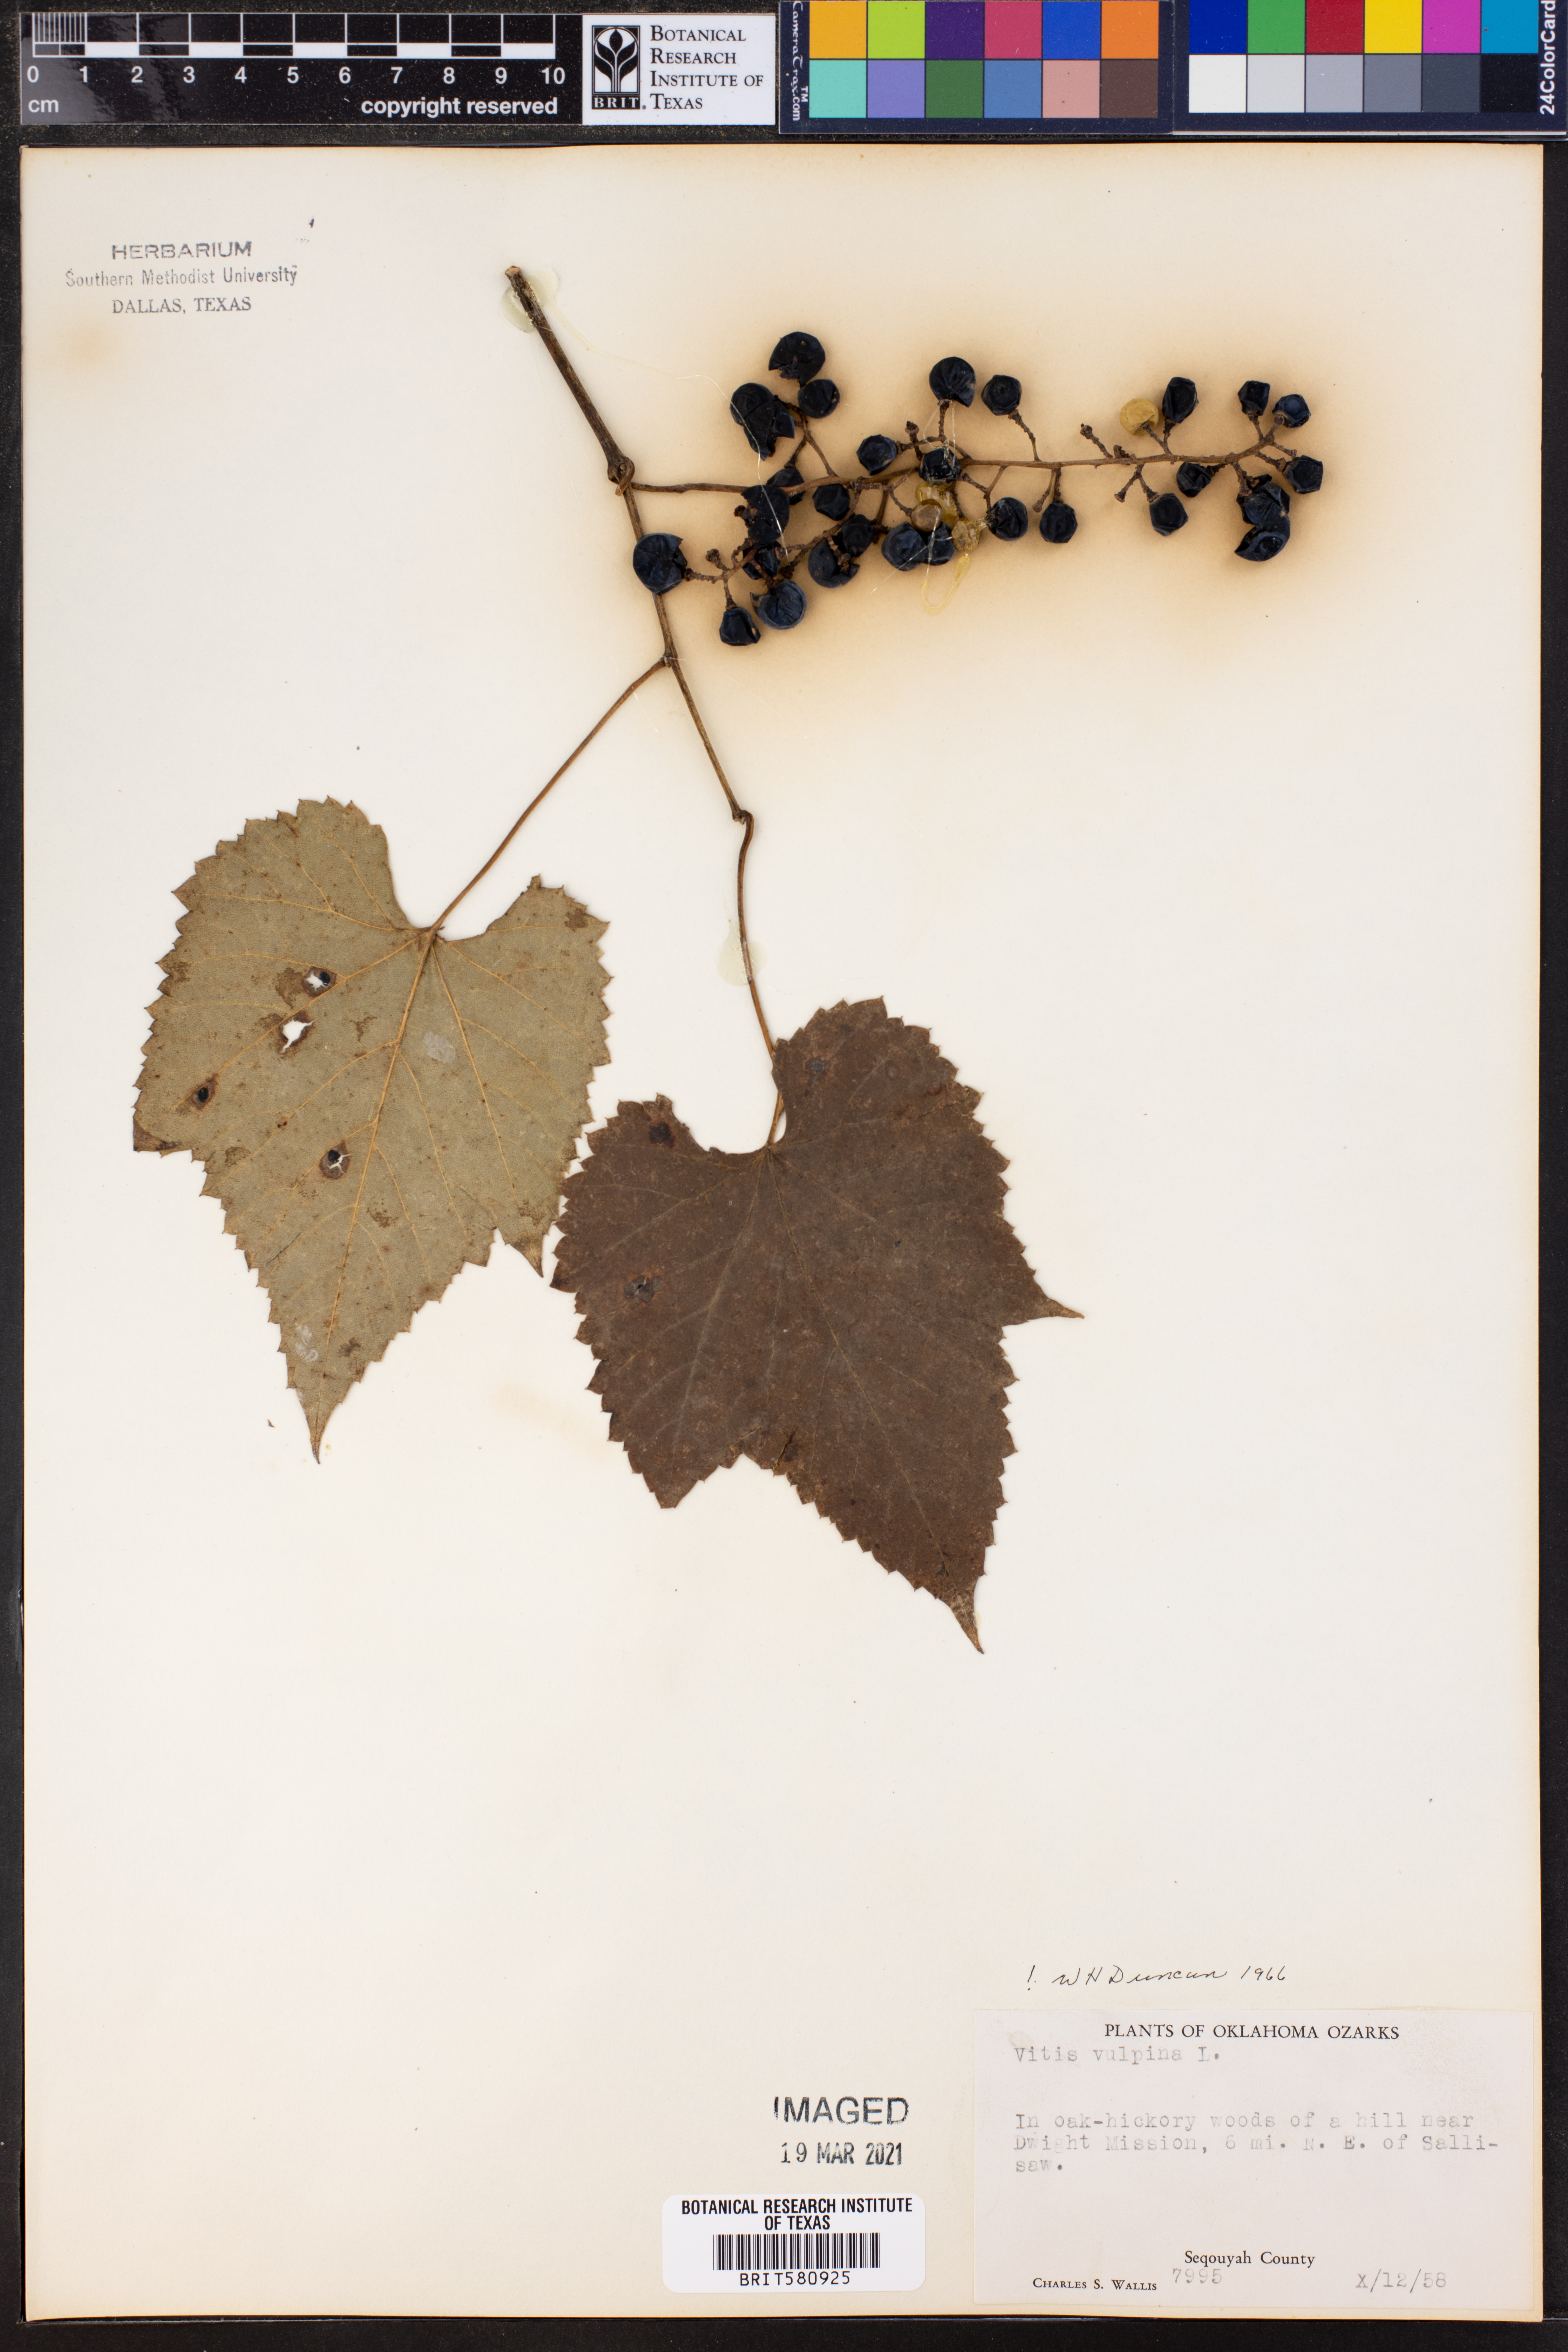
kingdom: Plantae
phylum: Tracheophyta
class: Magnoliopsida
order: Vitales
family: Vitaceae
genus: Vitis
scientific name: Vitis vulpina
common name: Frost grape
